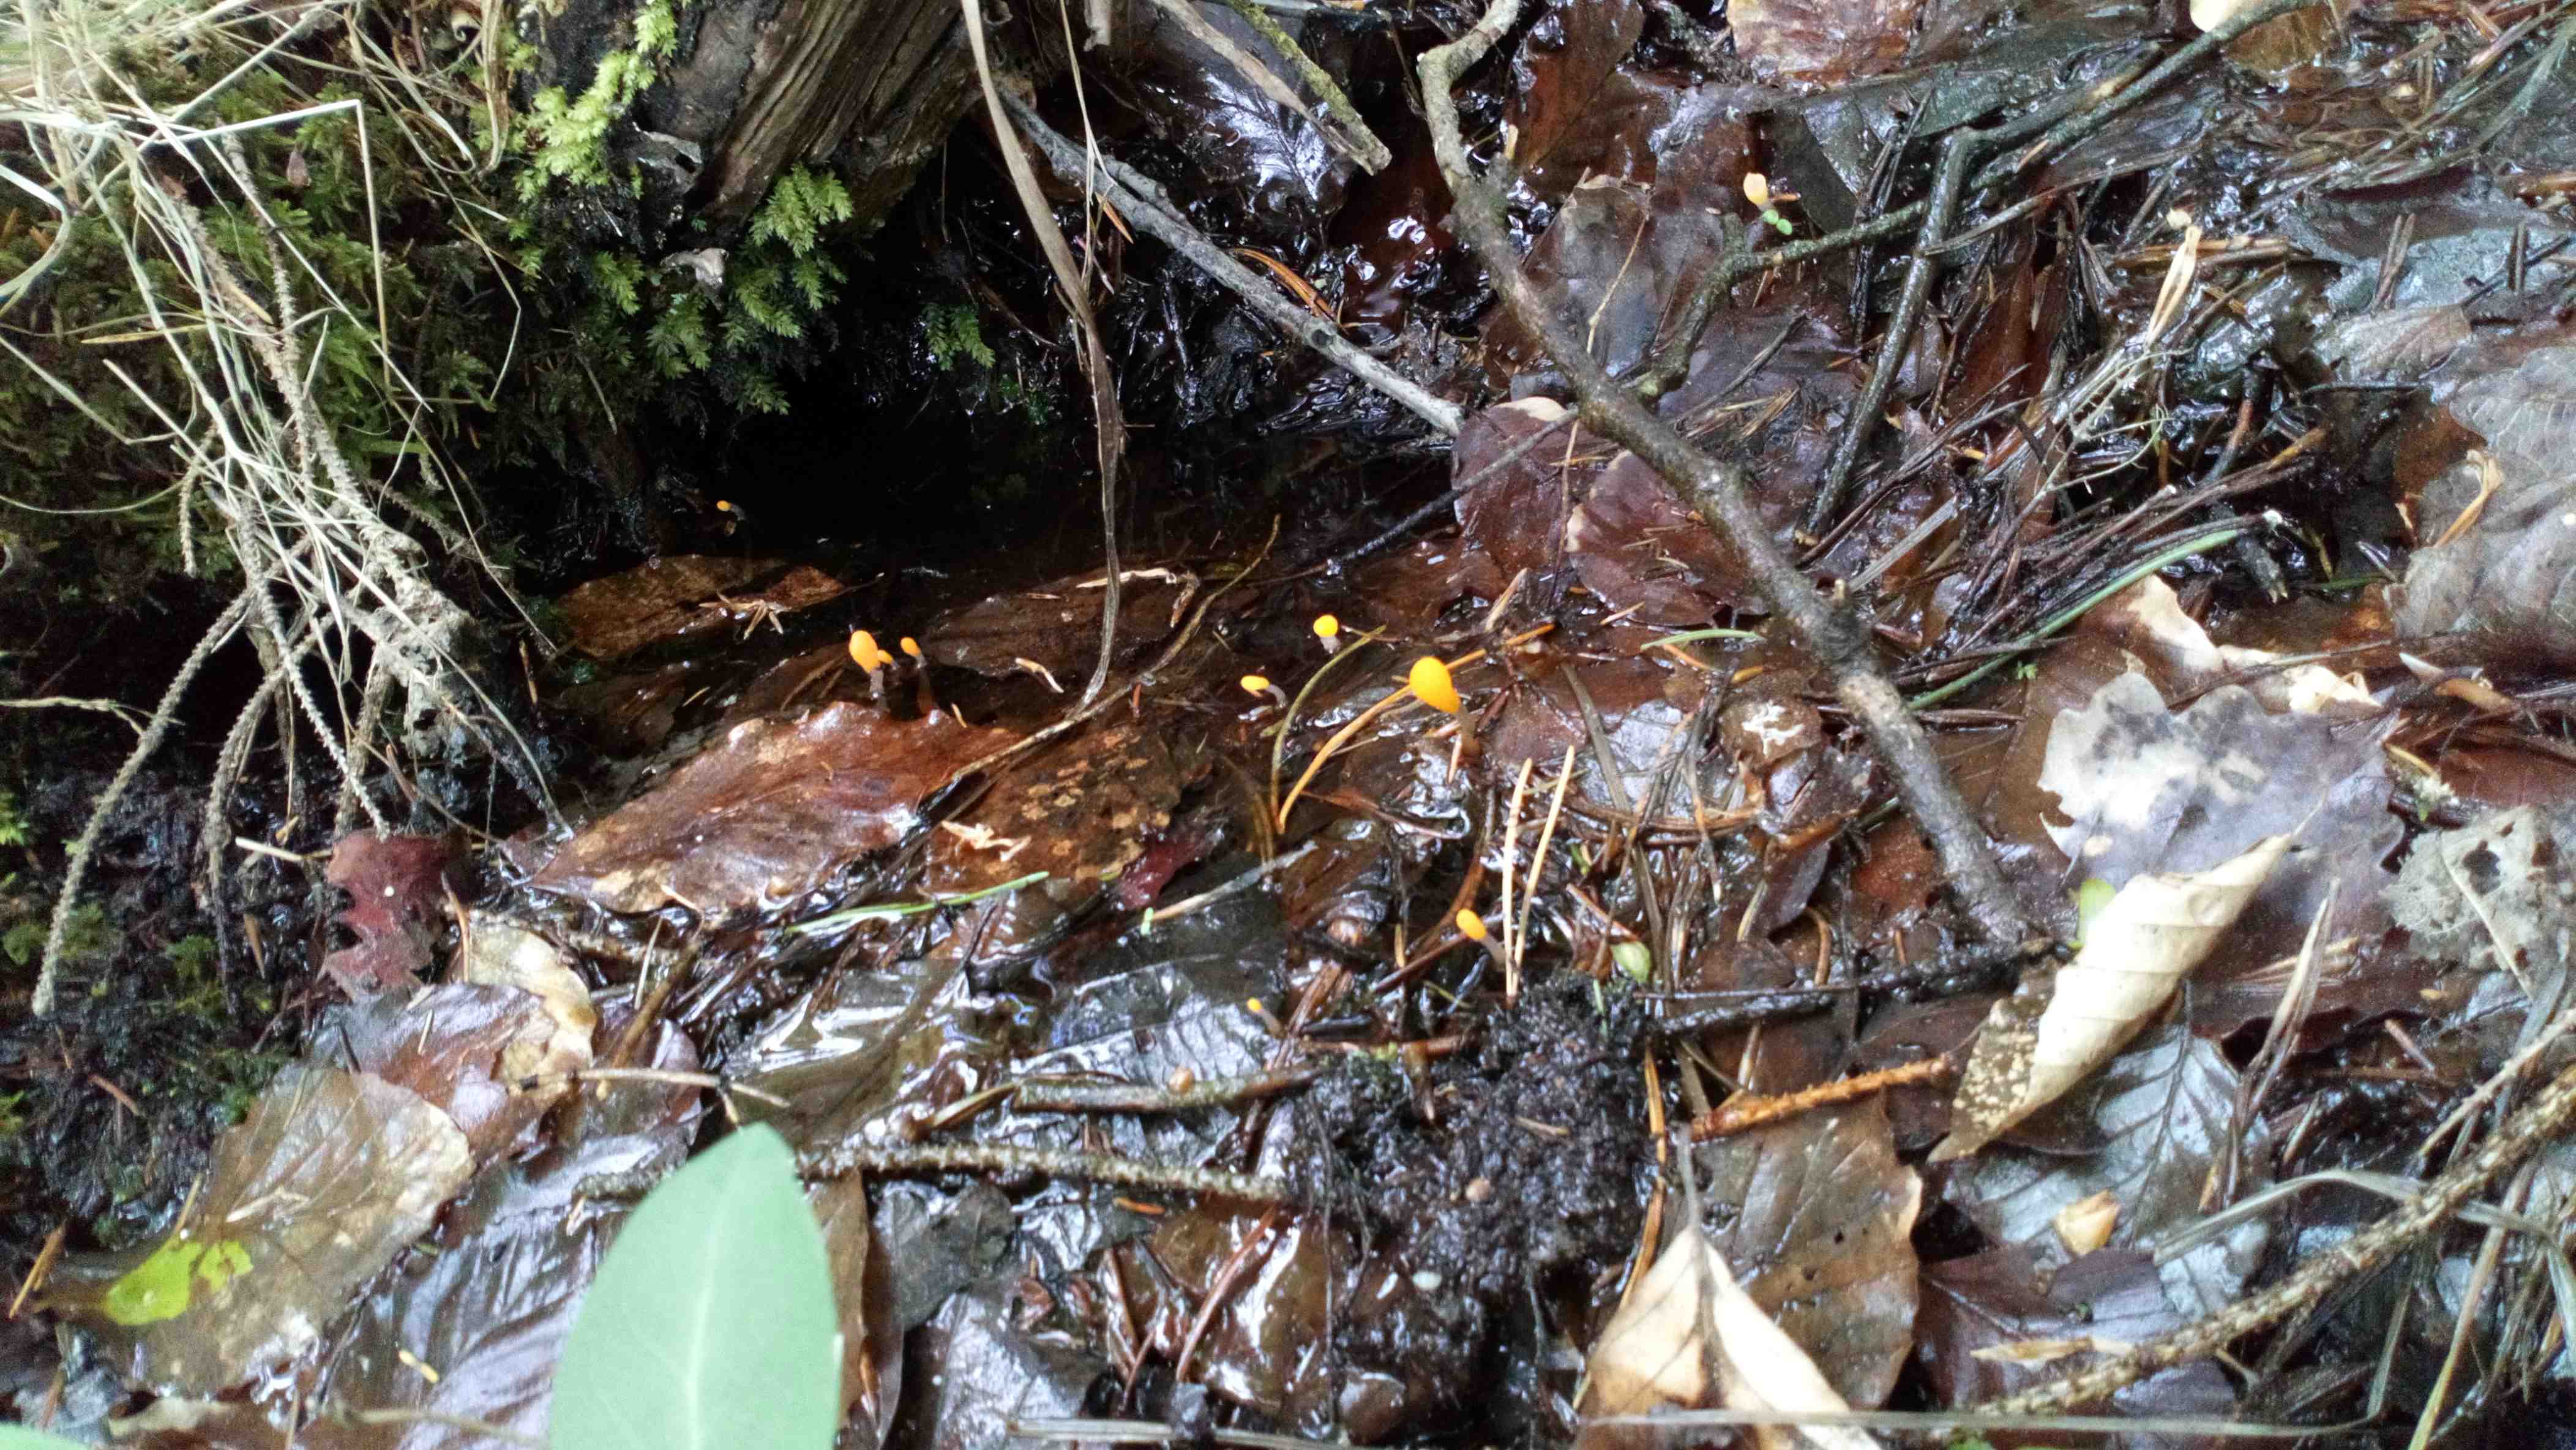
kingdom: Fungi
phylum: Ascomycota
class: Leotiomycetes
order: Helotiales
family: Cenangiaceae
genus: Mitrula
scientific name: Mitrula paludosa
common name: gul nøkketunge
